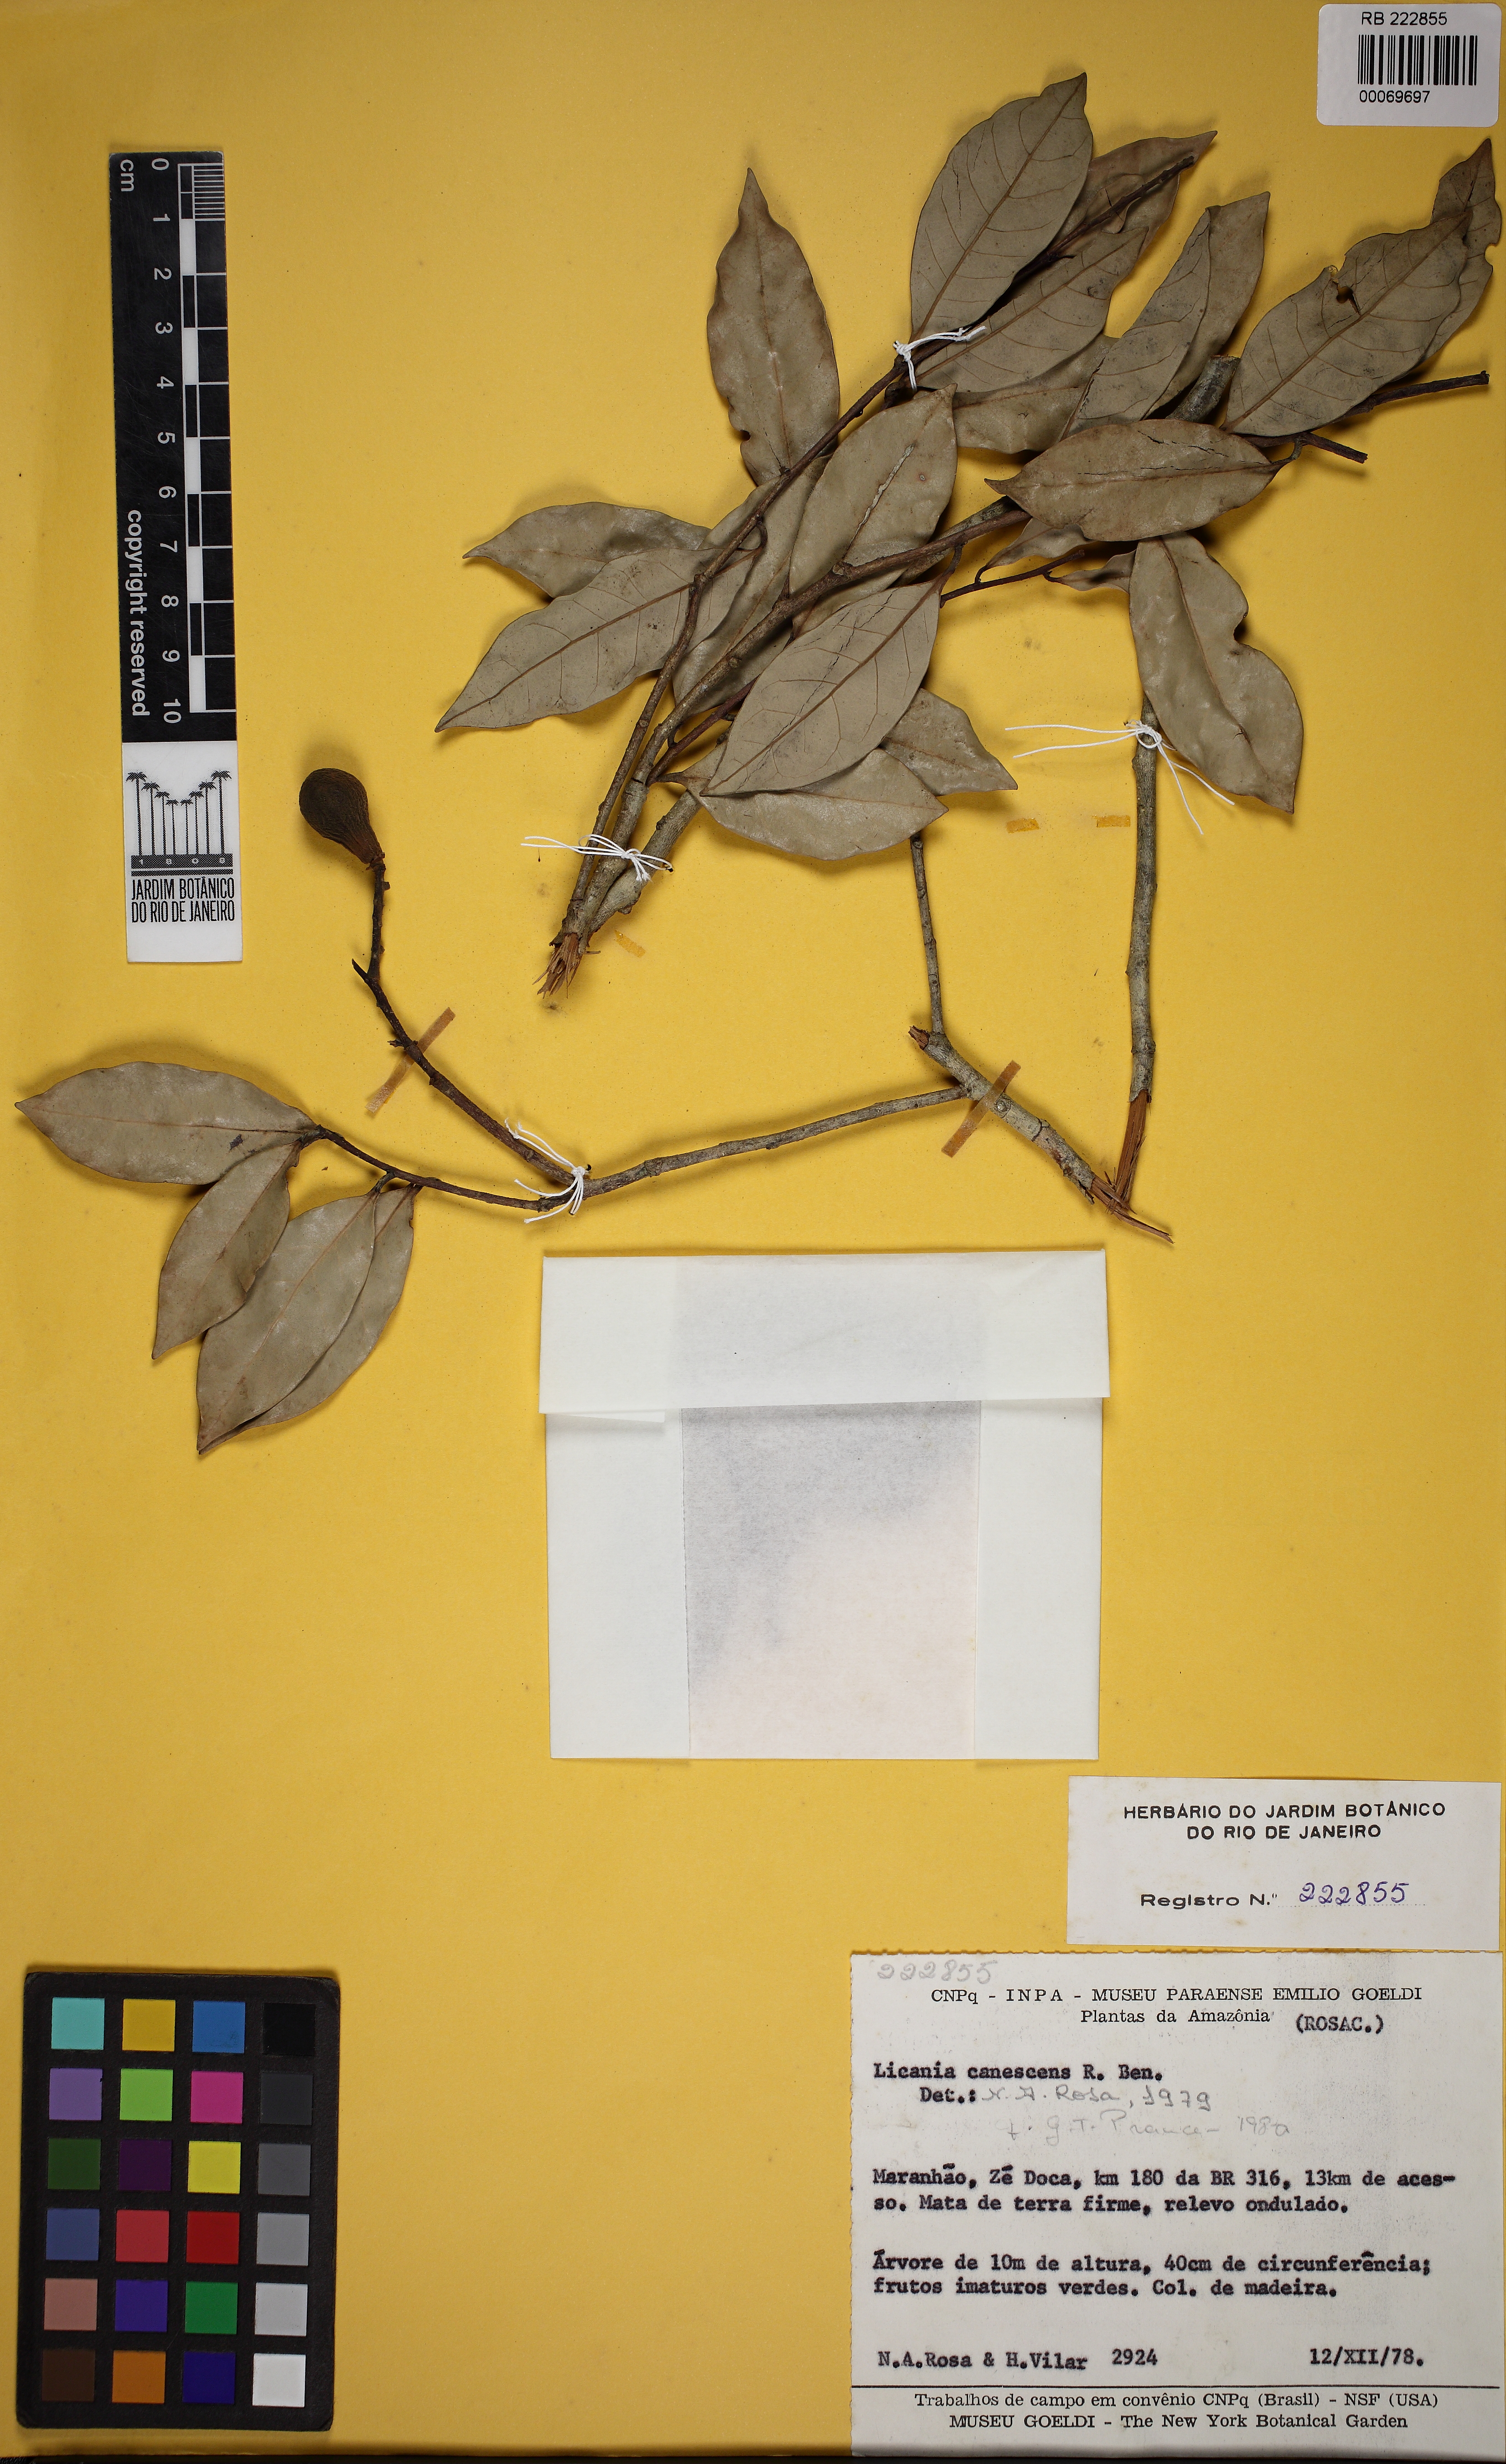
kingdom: Plantae
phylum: Tracheophyta
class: Magnoliopsida
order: Malpighiales
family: Chrysobalanaceae
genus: Licania
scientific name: Licania canescens
